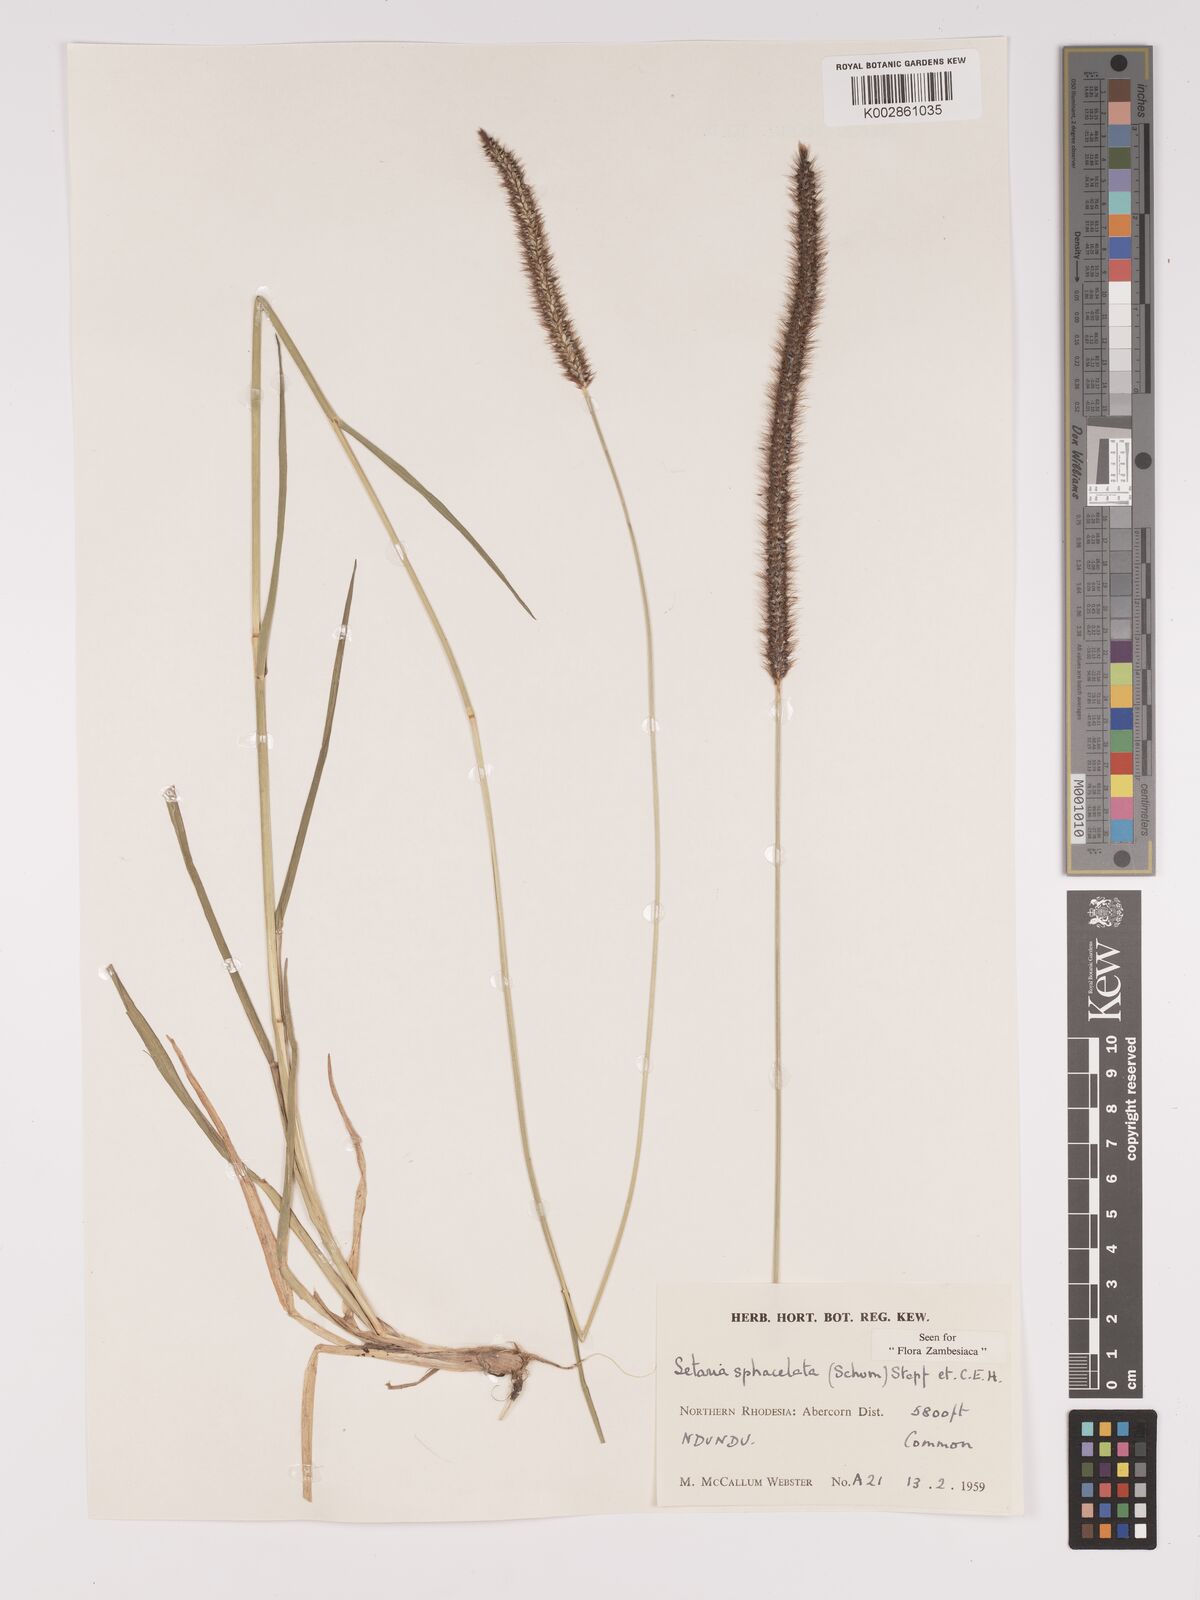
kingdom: Plantae
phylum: Tracheophyta
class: Liliopsida
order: Poales
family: Poaceae
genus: Setaria
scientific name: Setaria sphacelata
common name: African bristlegrass
